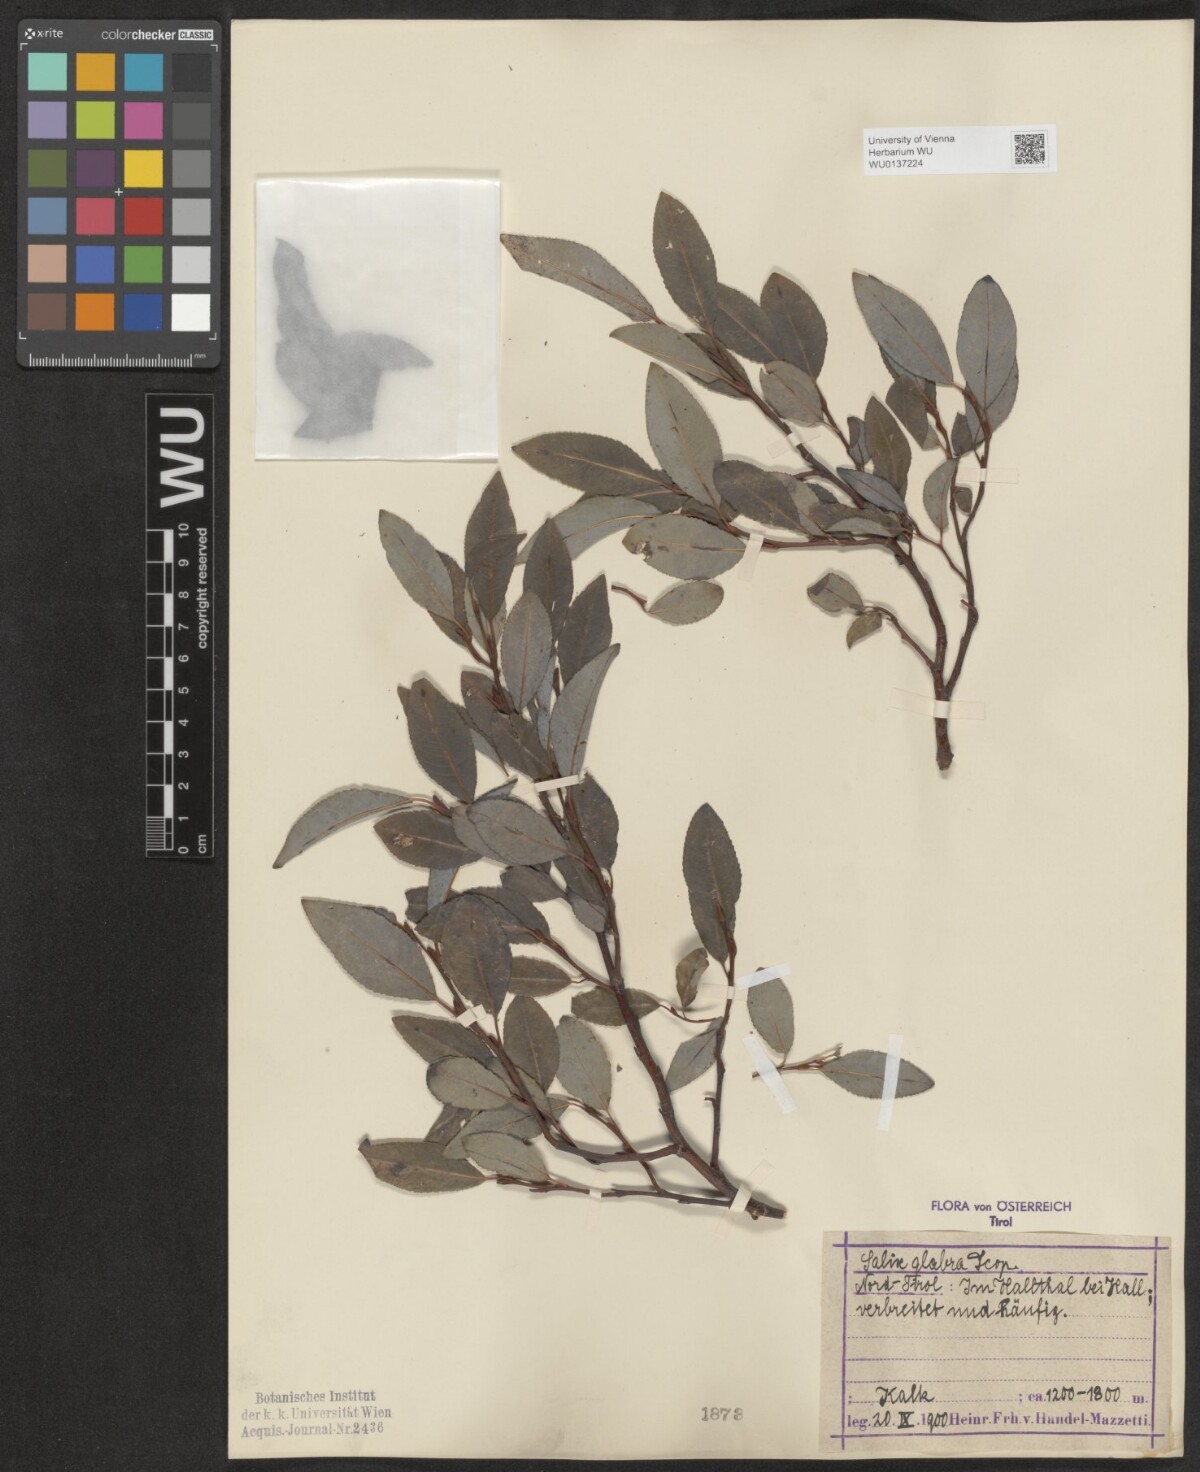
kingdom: Plantae
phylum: Tracheophyta
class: Magnoliopsida
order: Malpighiales
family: Salicaceae
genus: Salix
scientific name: Salix glabra
